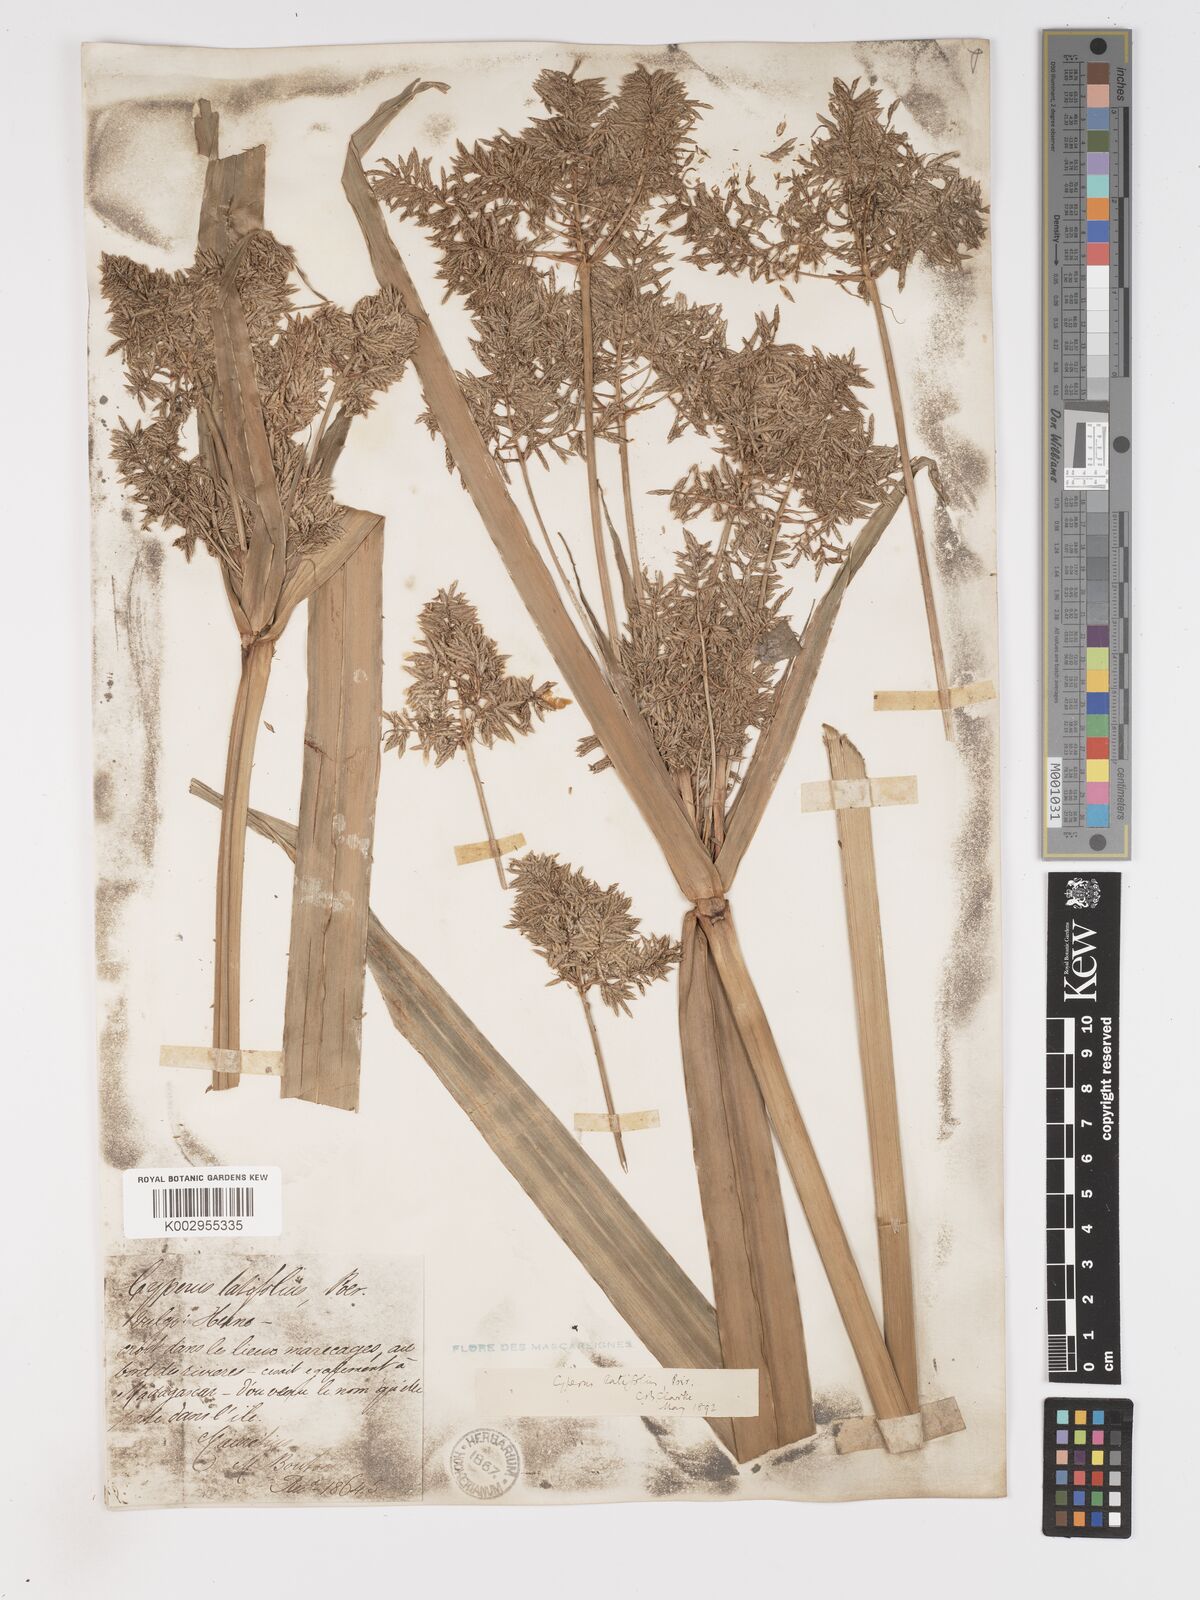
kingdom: Plantae
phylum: Tracheophyta
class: Liliopsida
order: Poales
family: Cyperaceae
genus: Cyperus
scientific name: Cyperus latifolius
